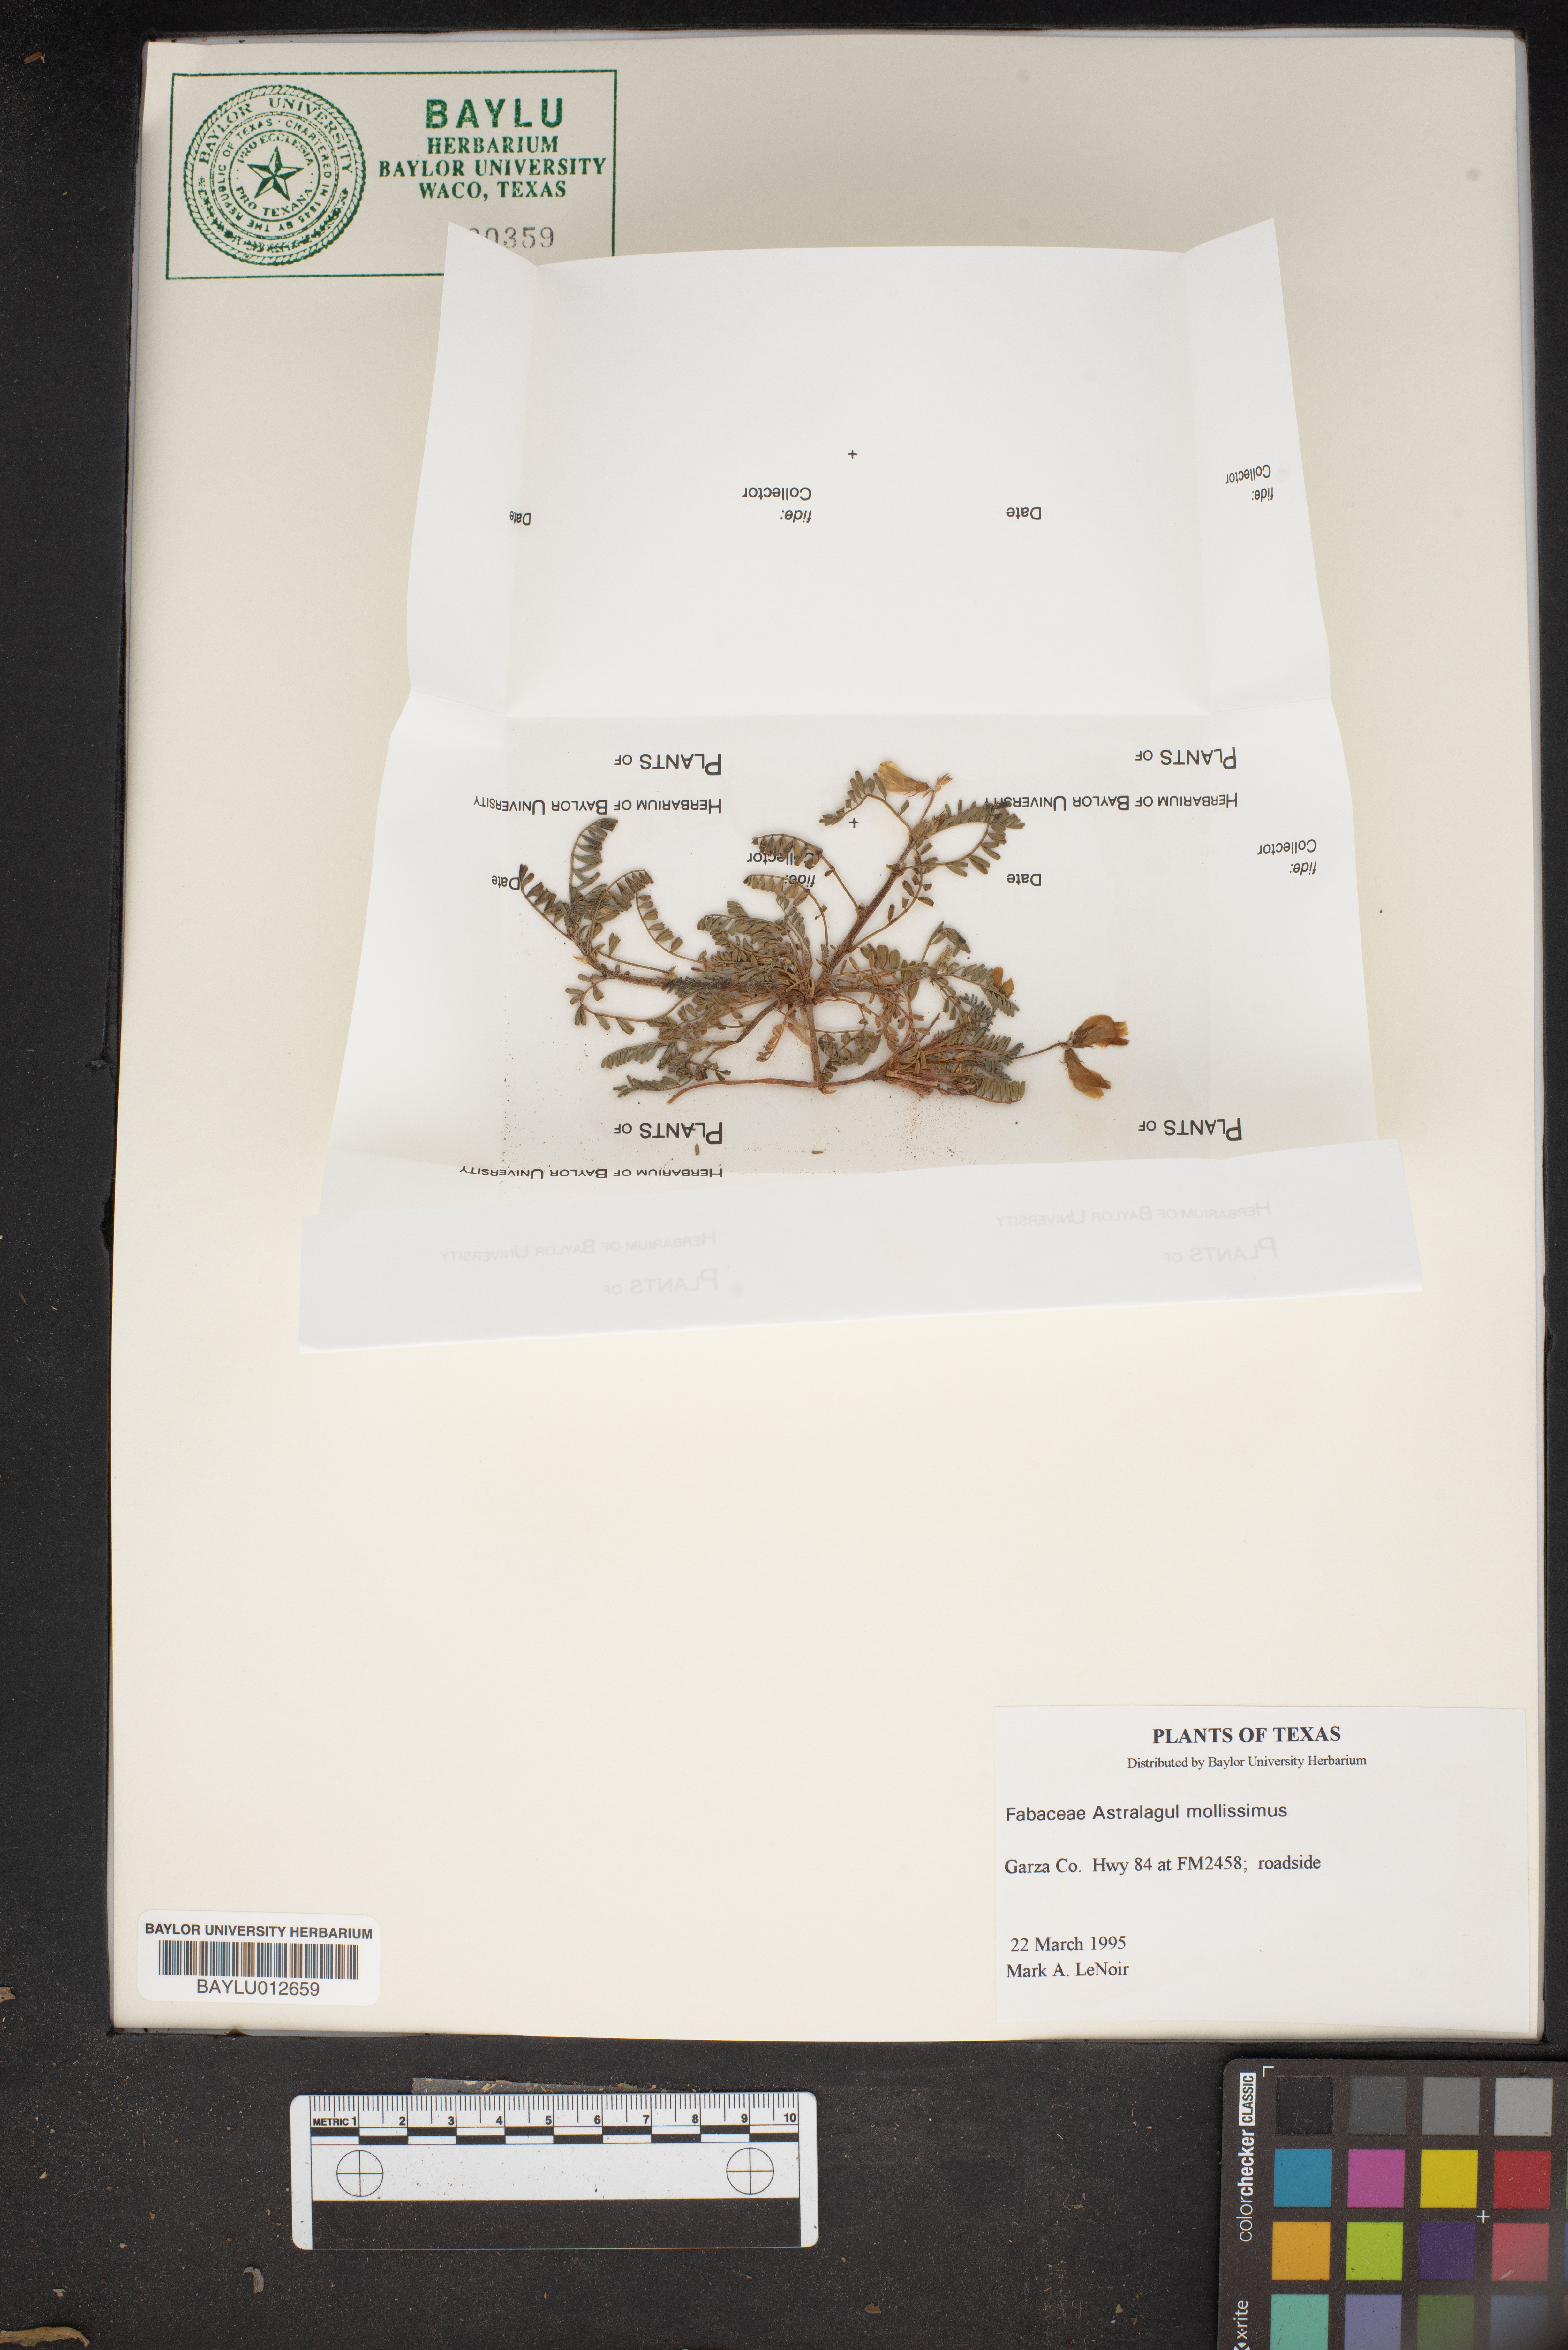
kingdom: Plantae
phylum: Tracheophyta
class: Magnoliopsida
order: Fabales
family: Fabaceae
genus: Astragalus
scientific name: Astragalus mollissimus
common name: Woolly locoweed
